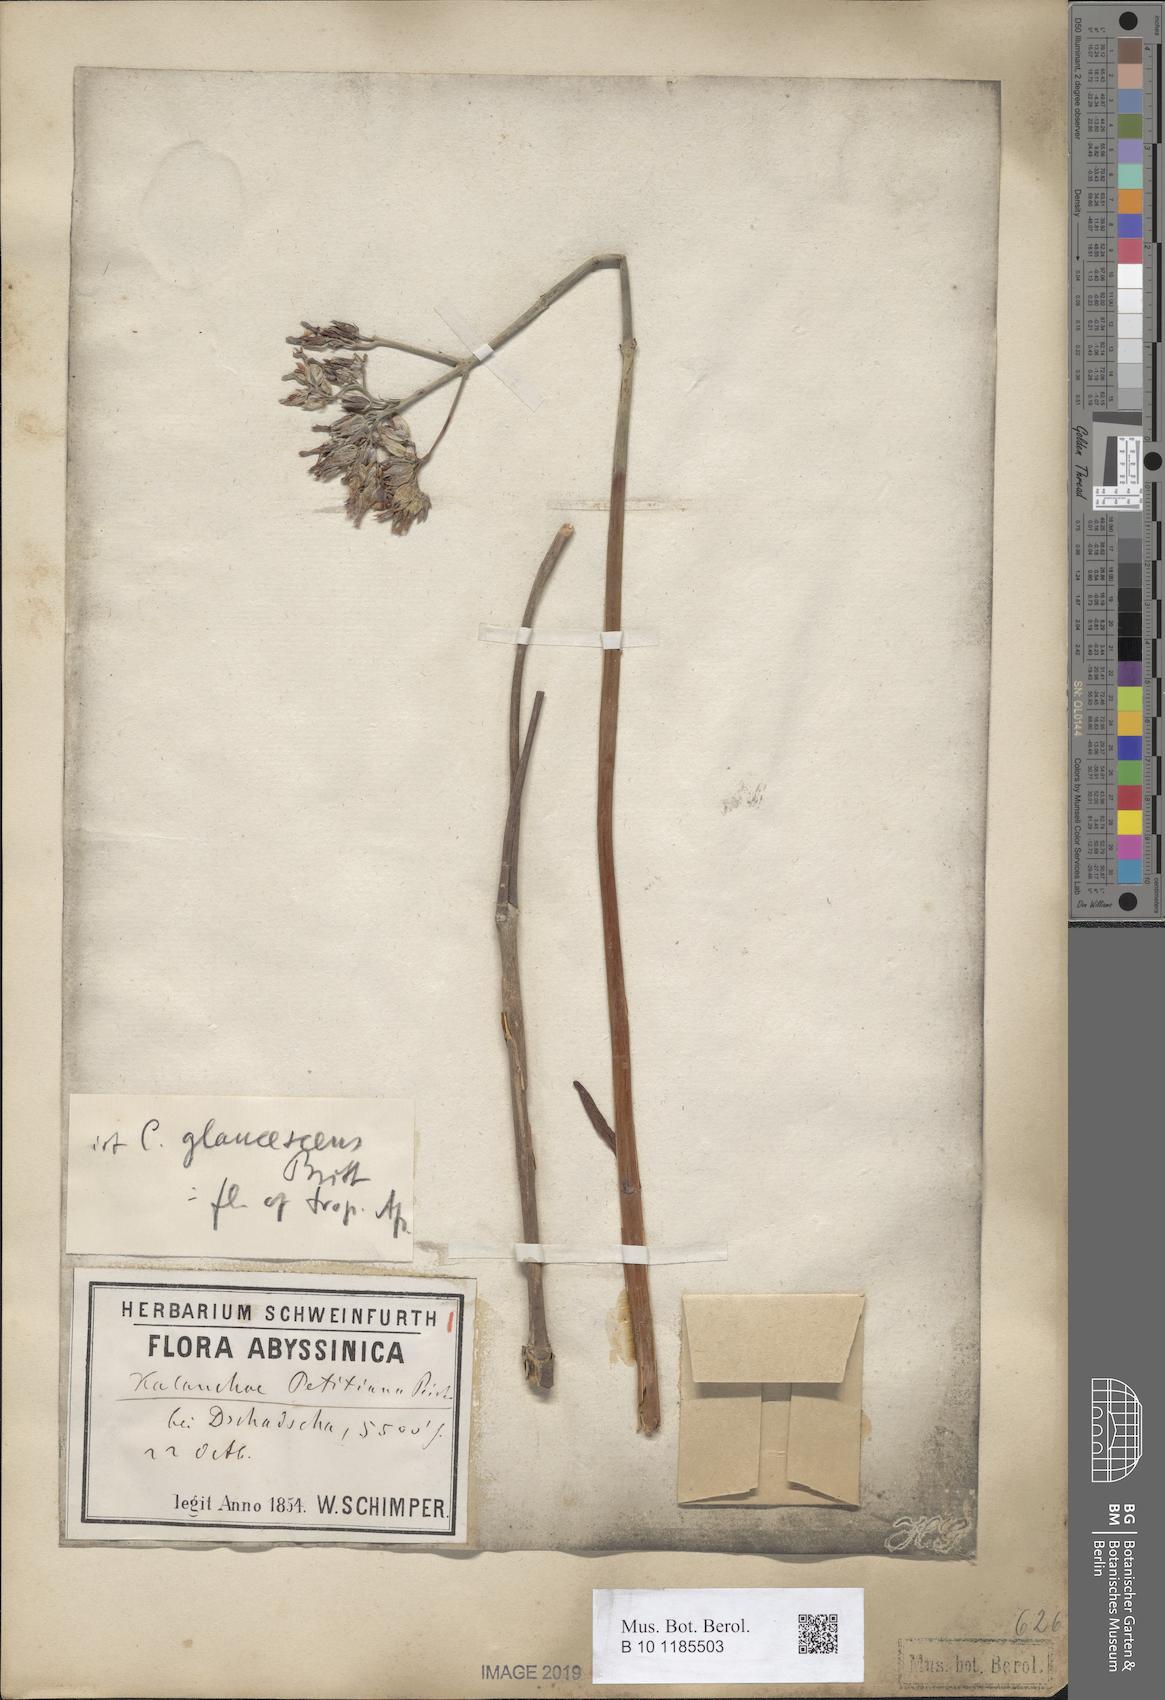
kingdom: Plantae
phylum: Tracheophyta
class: Magnoliopsida
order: Saxifragales
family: Crassulaceae
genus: Kalanchoe
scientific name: Kalanchoe glaucescens
